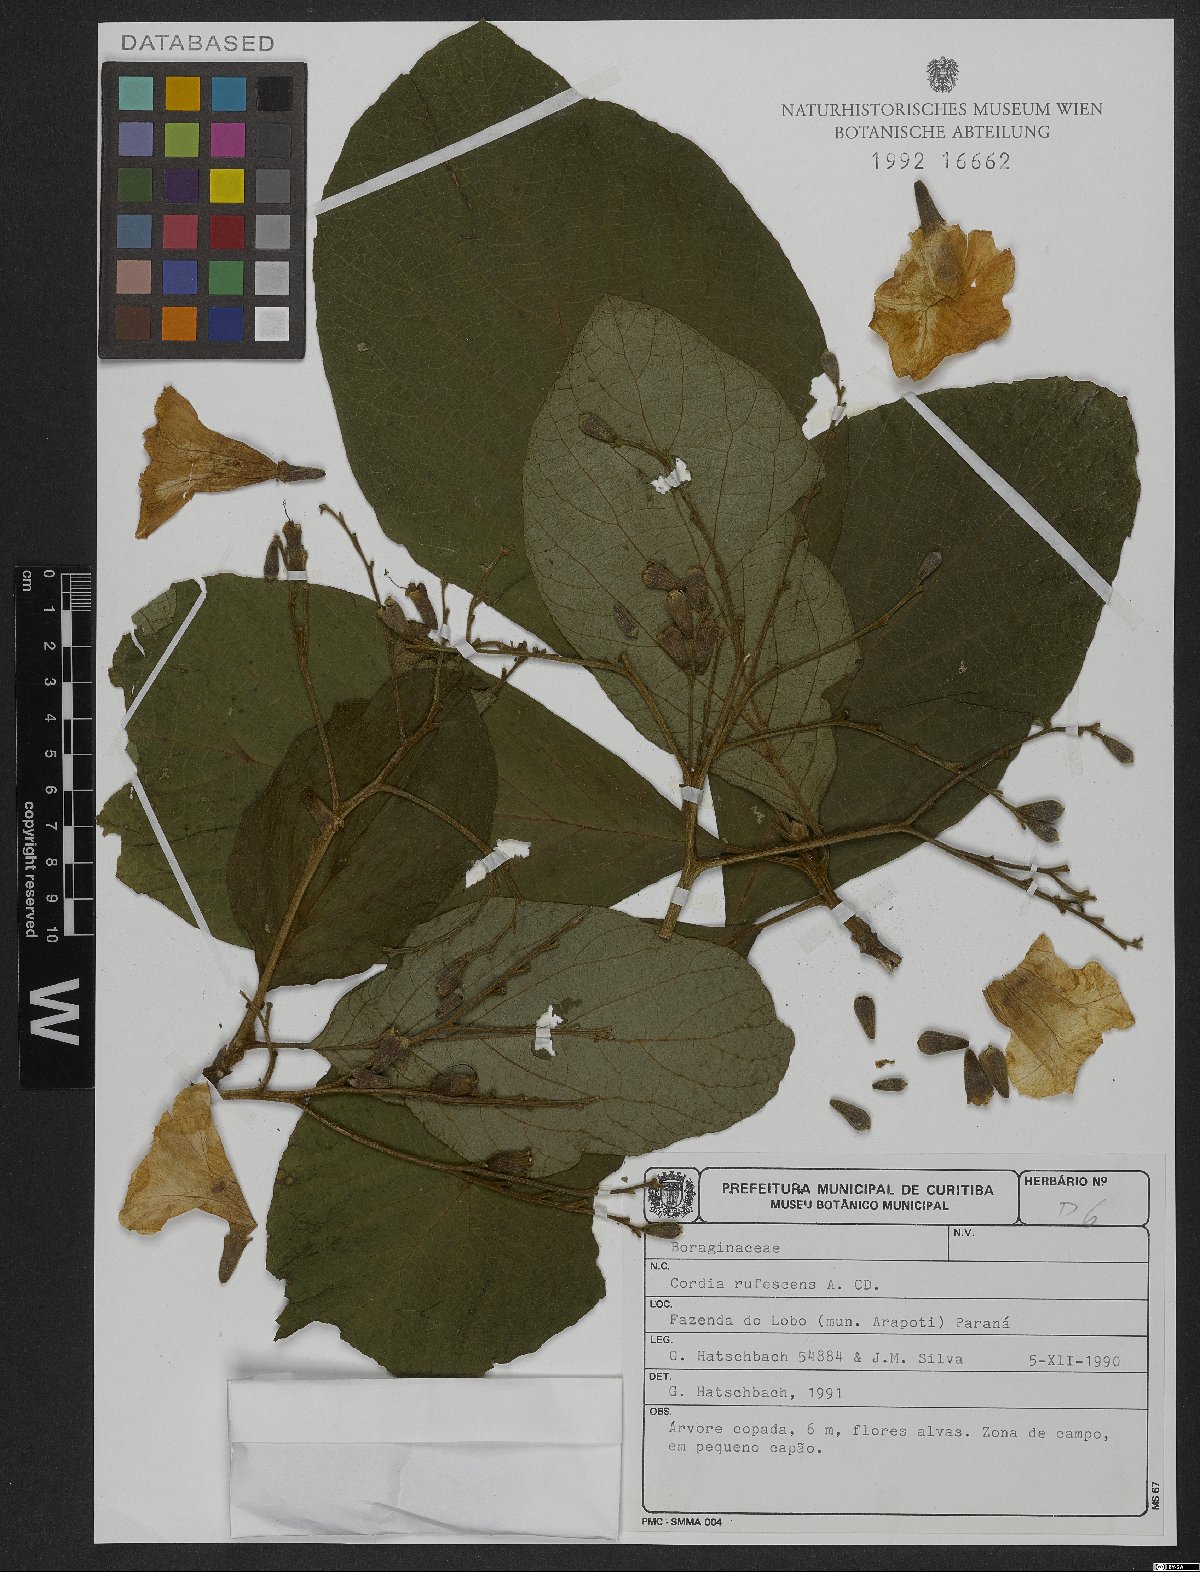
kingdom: Plantae
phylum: Tracheophyta
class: Magnoliopsida
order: Boraginales
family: Cordiaceae
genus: Cordia
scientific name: Cordia rufescens
